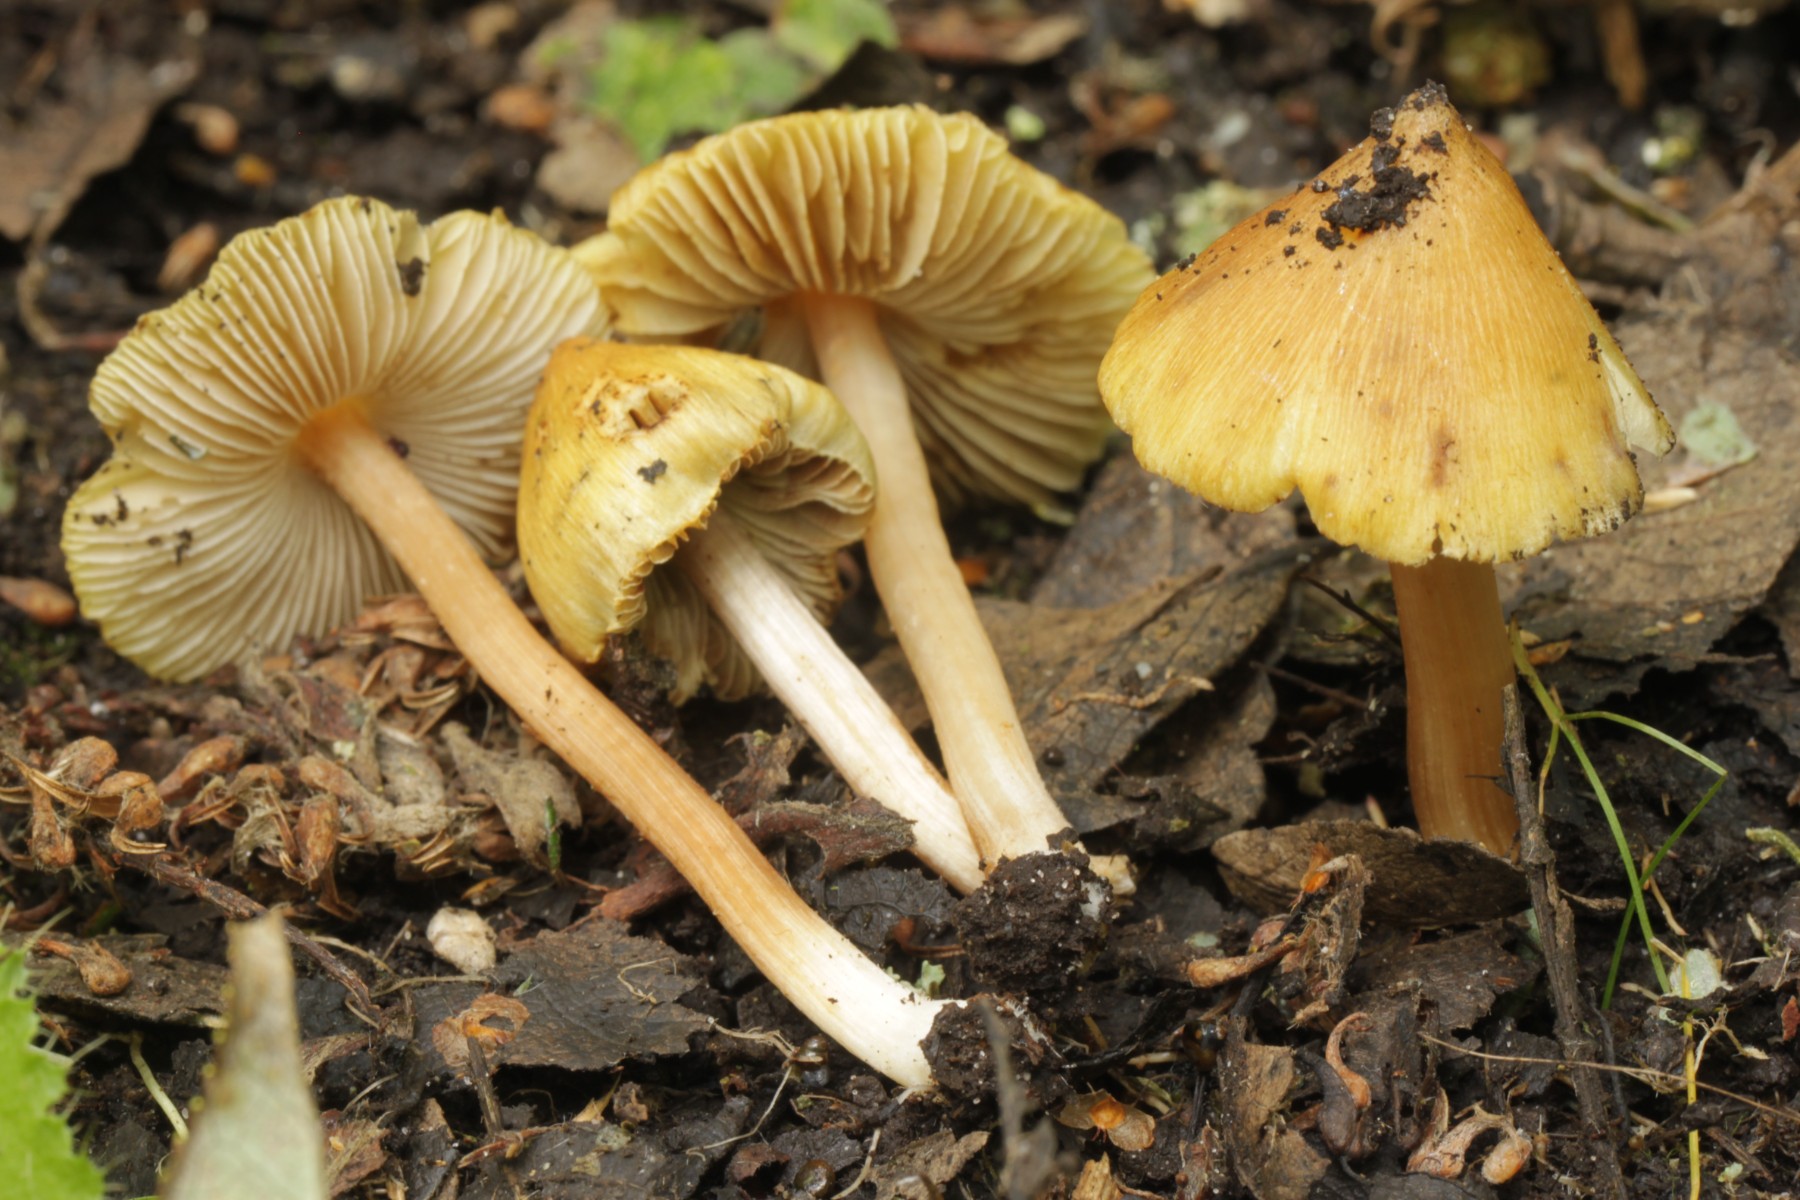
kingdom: Fungi
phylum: Basidiomycota
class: Agaricomycetes
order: Agaricales
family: Inocybaceae
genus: Pseudosperma
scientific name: Pseudosperma
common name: trævlhat
